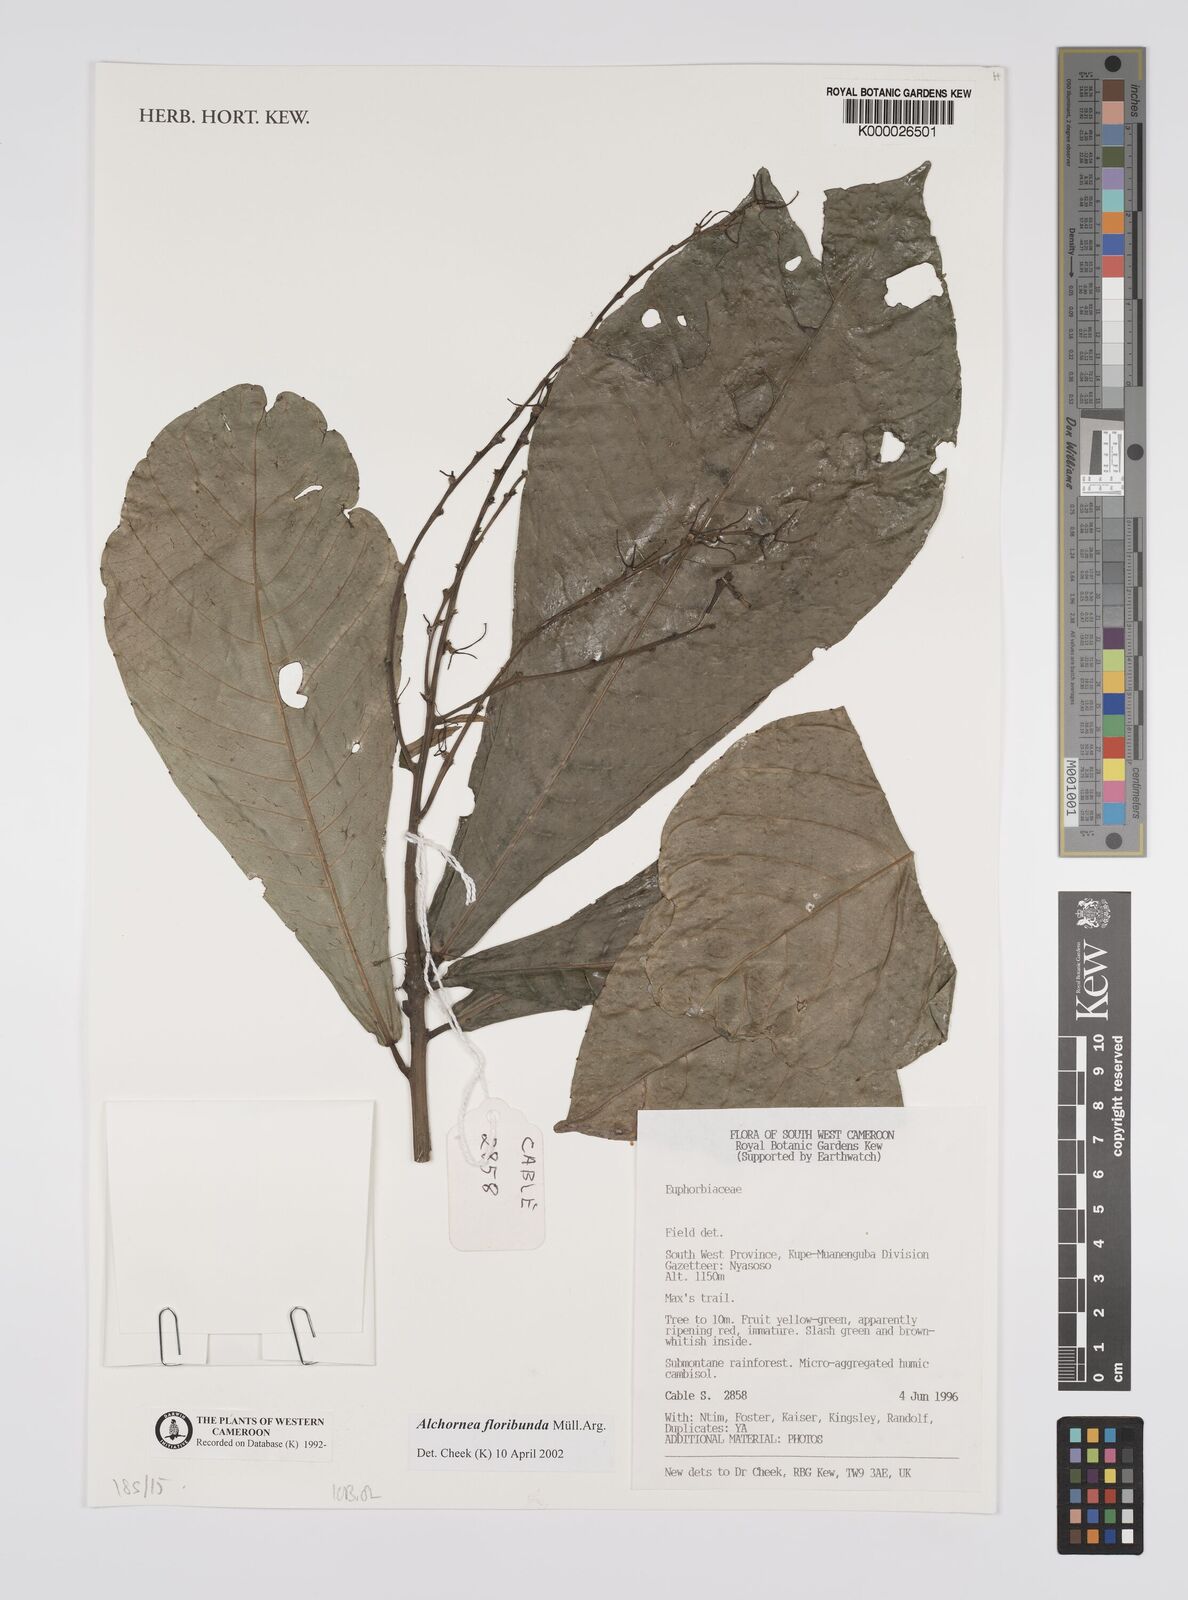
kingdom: Plantae
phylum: Tracheophyta
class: Magnoliopsida
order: Malpighiales
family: Euphorbiaceae
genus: Alchornea
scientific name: Alchornea
